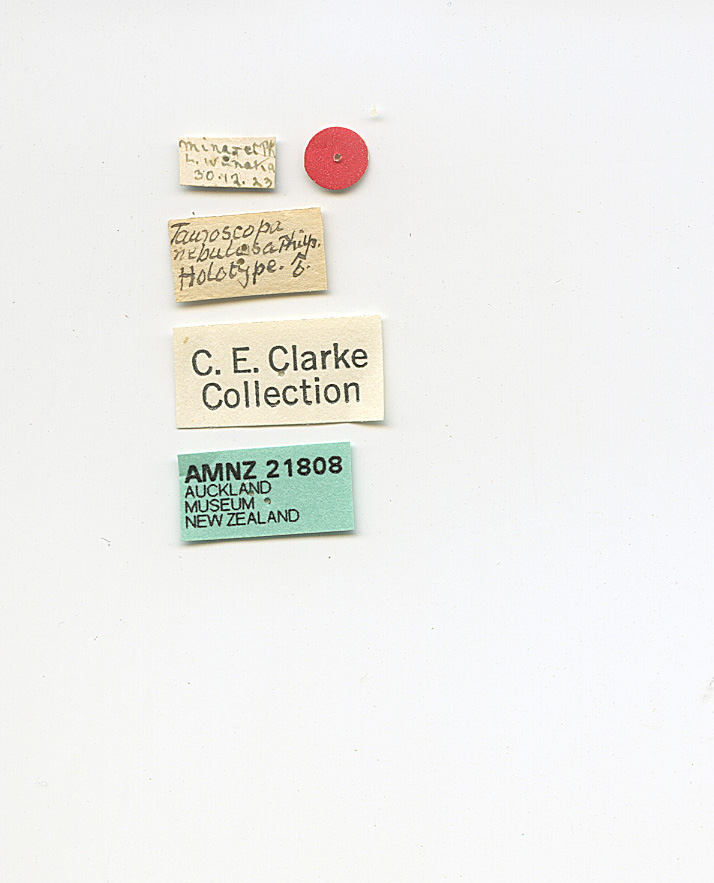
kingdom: Animalia
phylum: Arthropoda
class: Insecta
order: Lepidoptera
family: Crambidae
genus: Orocrambus
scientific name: Orocrambus clarkei
